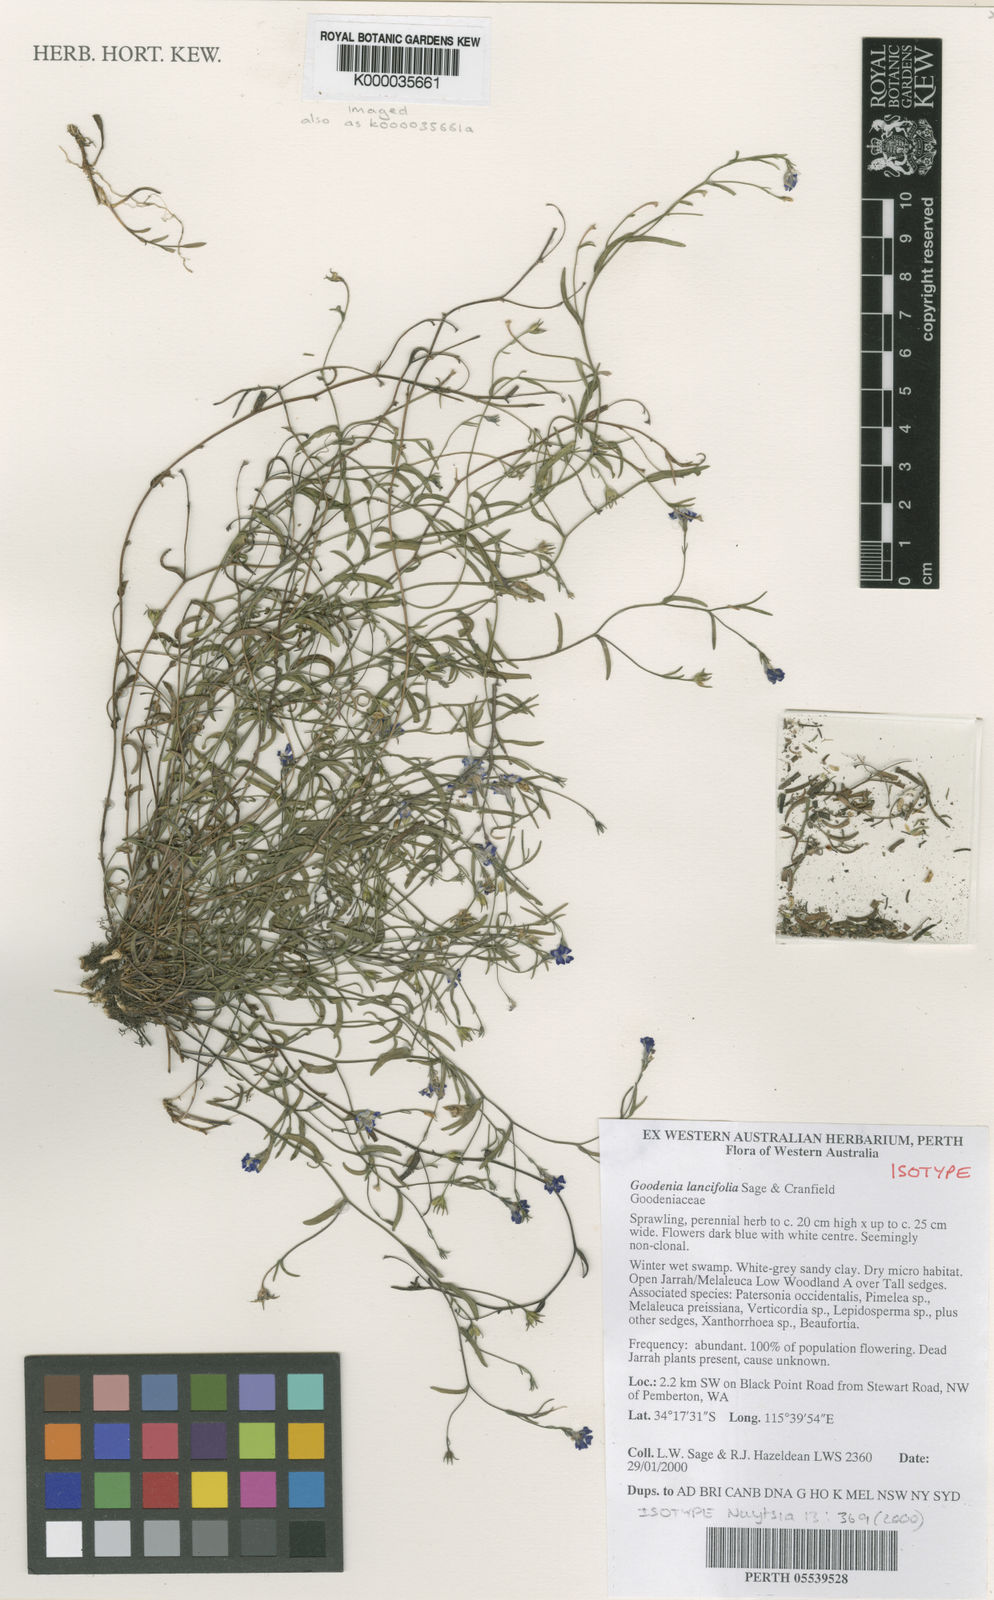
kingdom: Plantae
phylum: Tracheophyta
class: Magnoliopsida
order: Asterales
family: Goodeniaceae
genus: Goodenia
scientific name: Goodenia lancifolia
